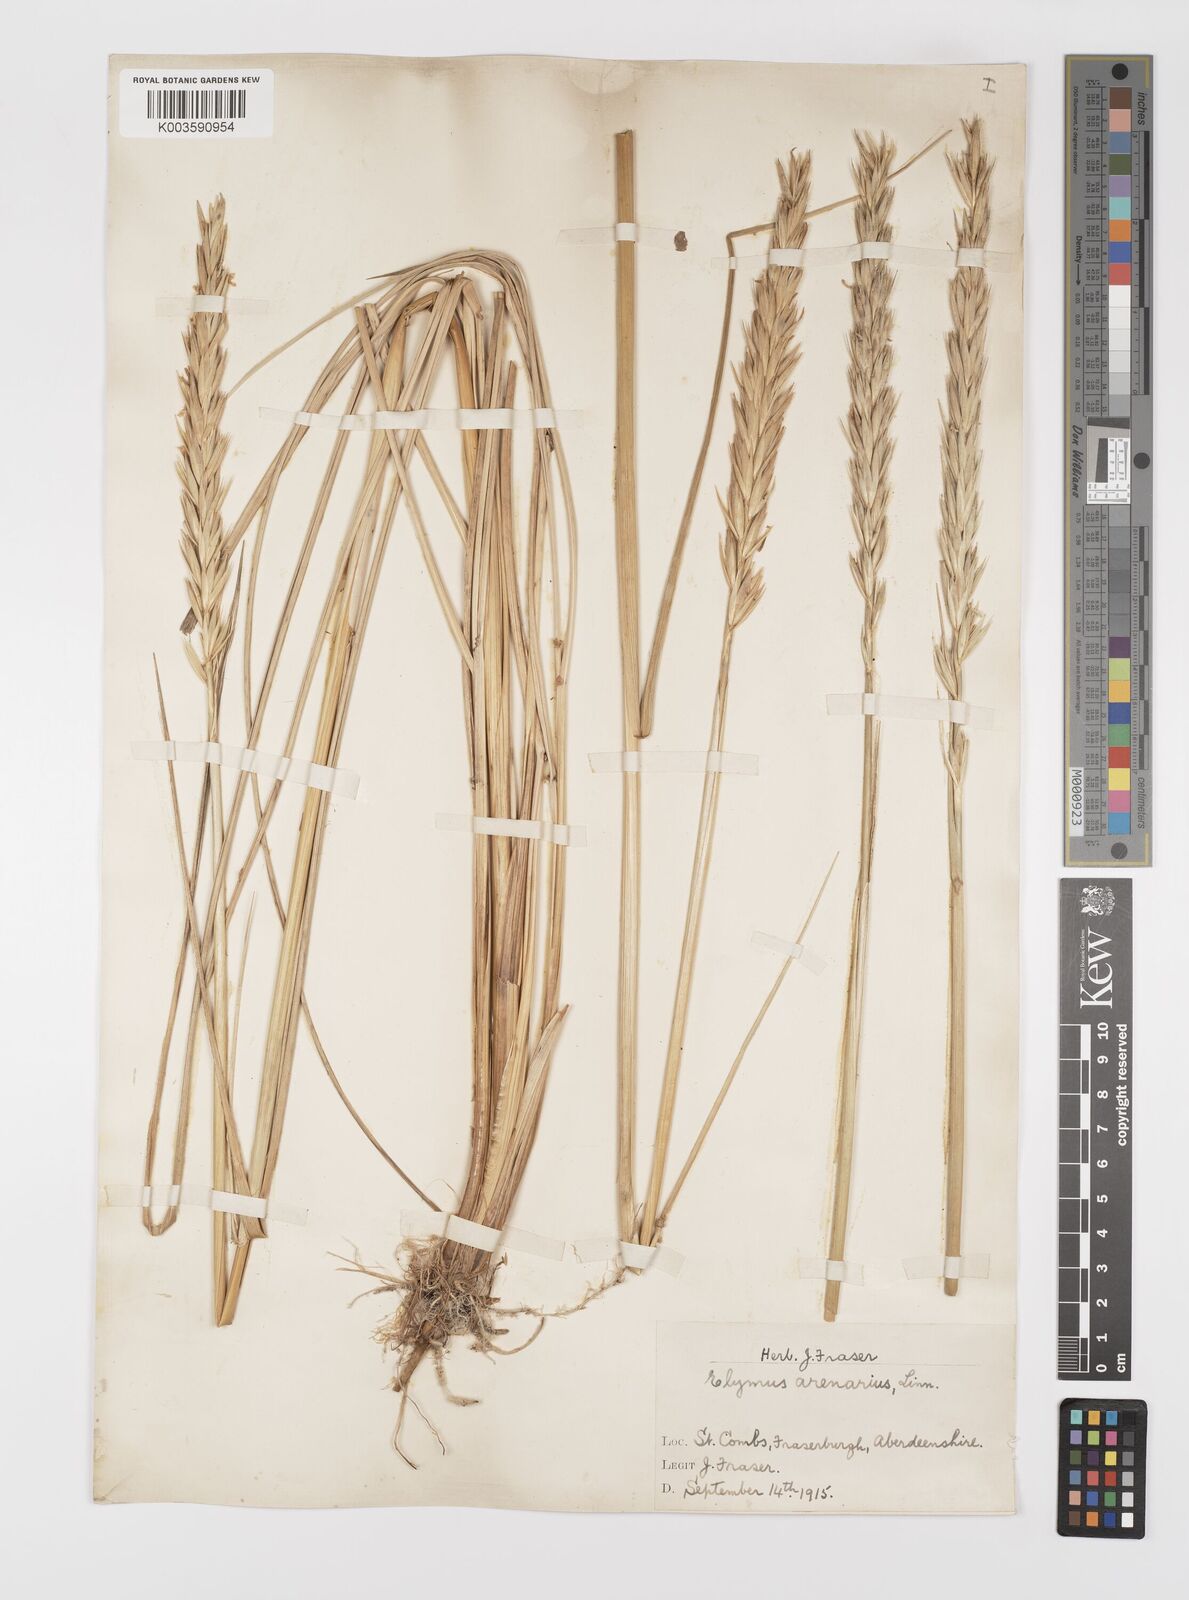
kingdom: Plantae
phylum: Tracheophyta
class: Liliopsida
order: Poales
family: Poaceae
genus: Leymus
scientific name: Leymus arenarius
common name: Lyme-grass
